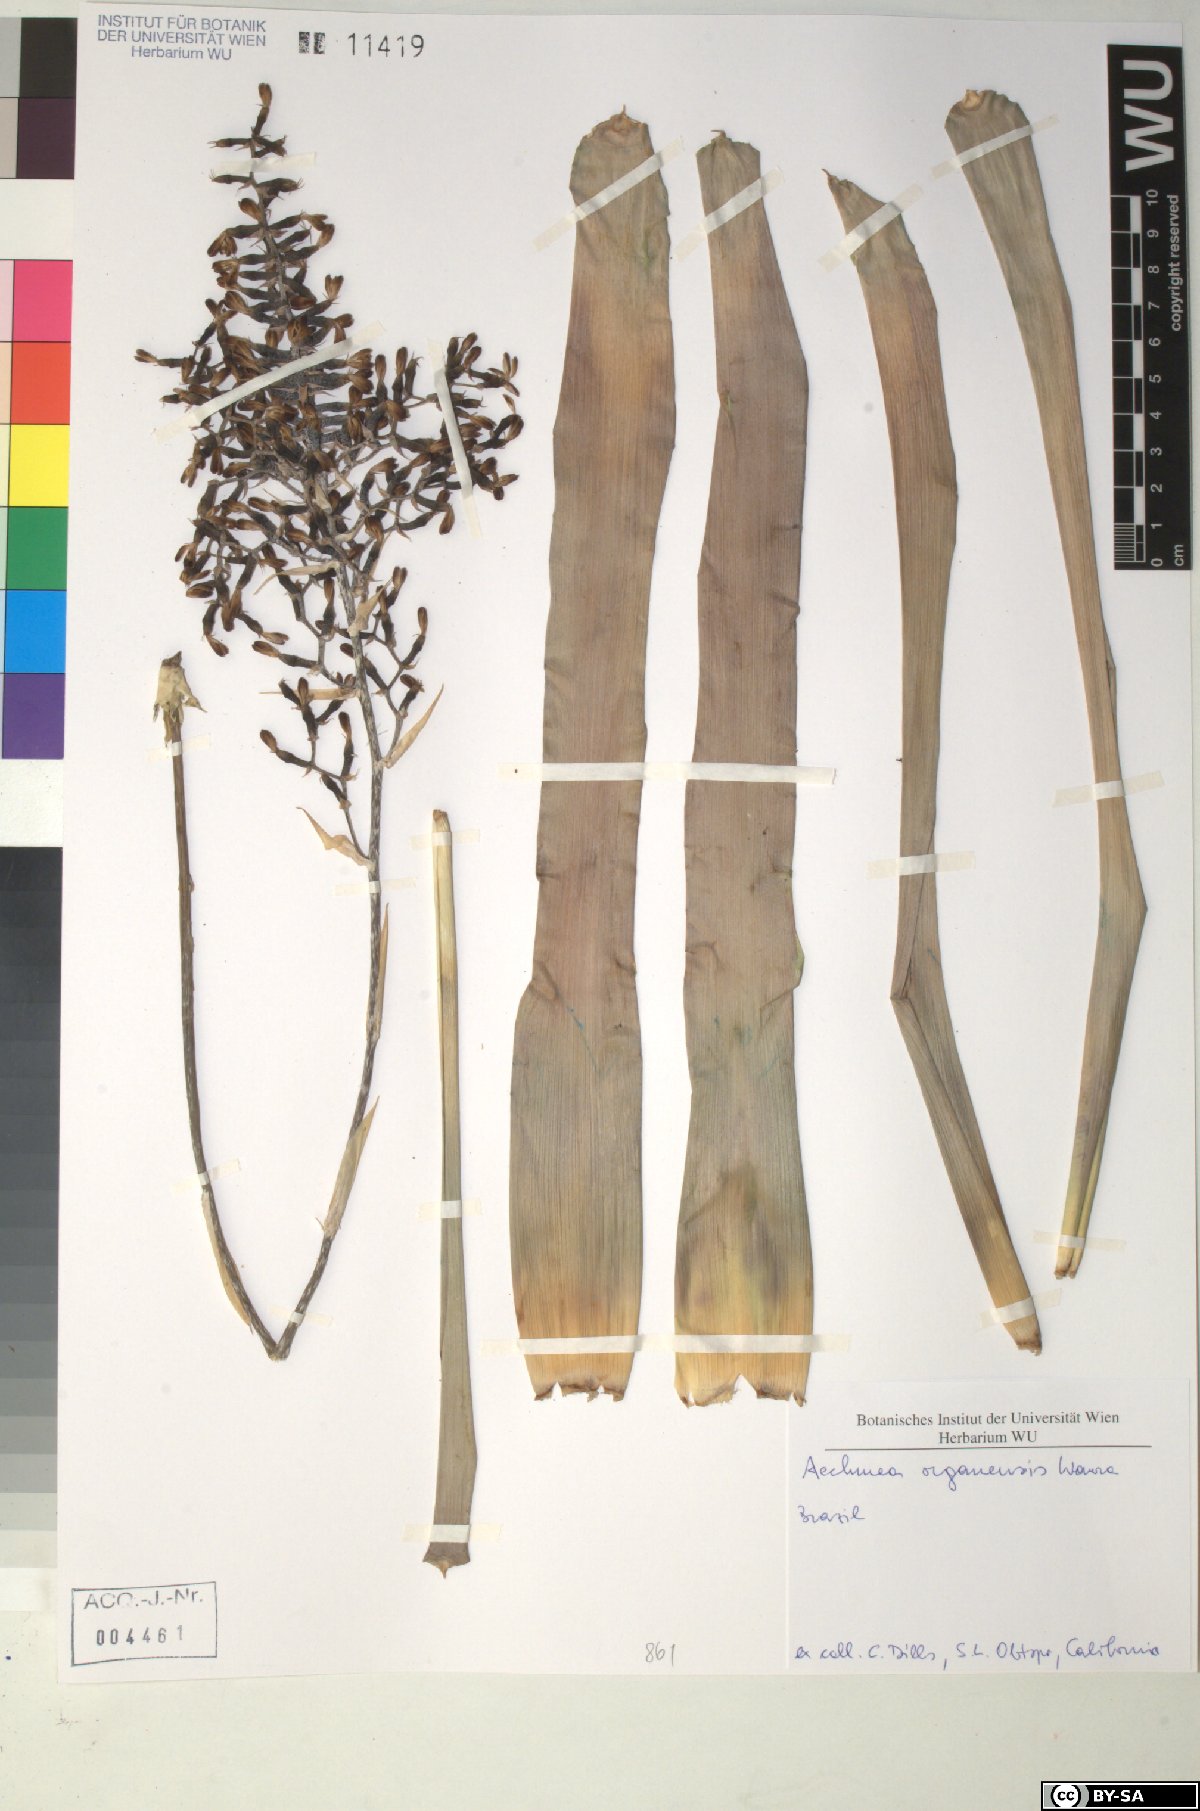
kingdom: Plantae
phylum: Tracheophyta
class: Liliopsida
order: Poales
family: Bromeliaceae
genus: Aechmea
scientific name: Aechmea organensis
